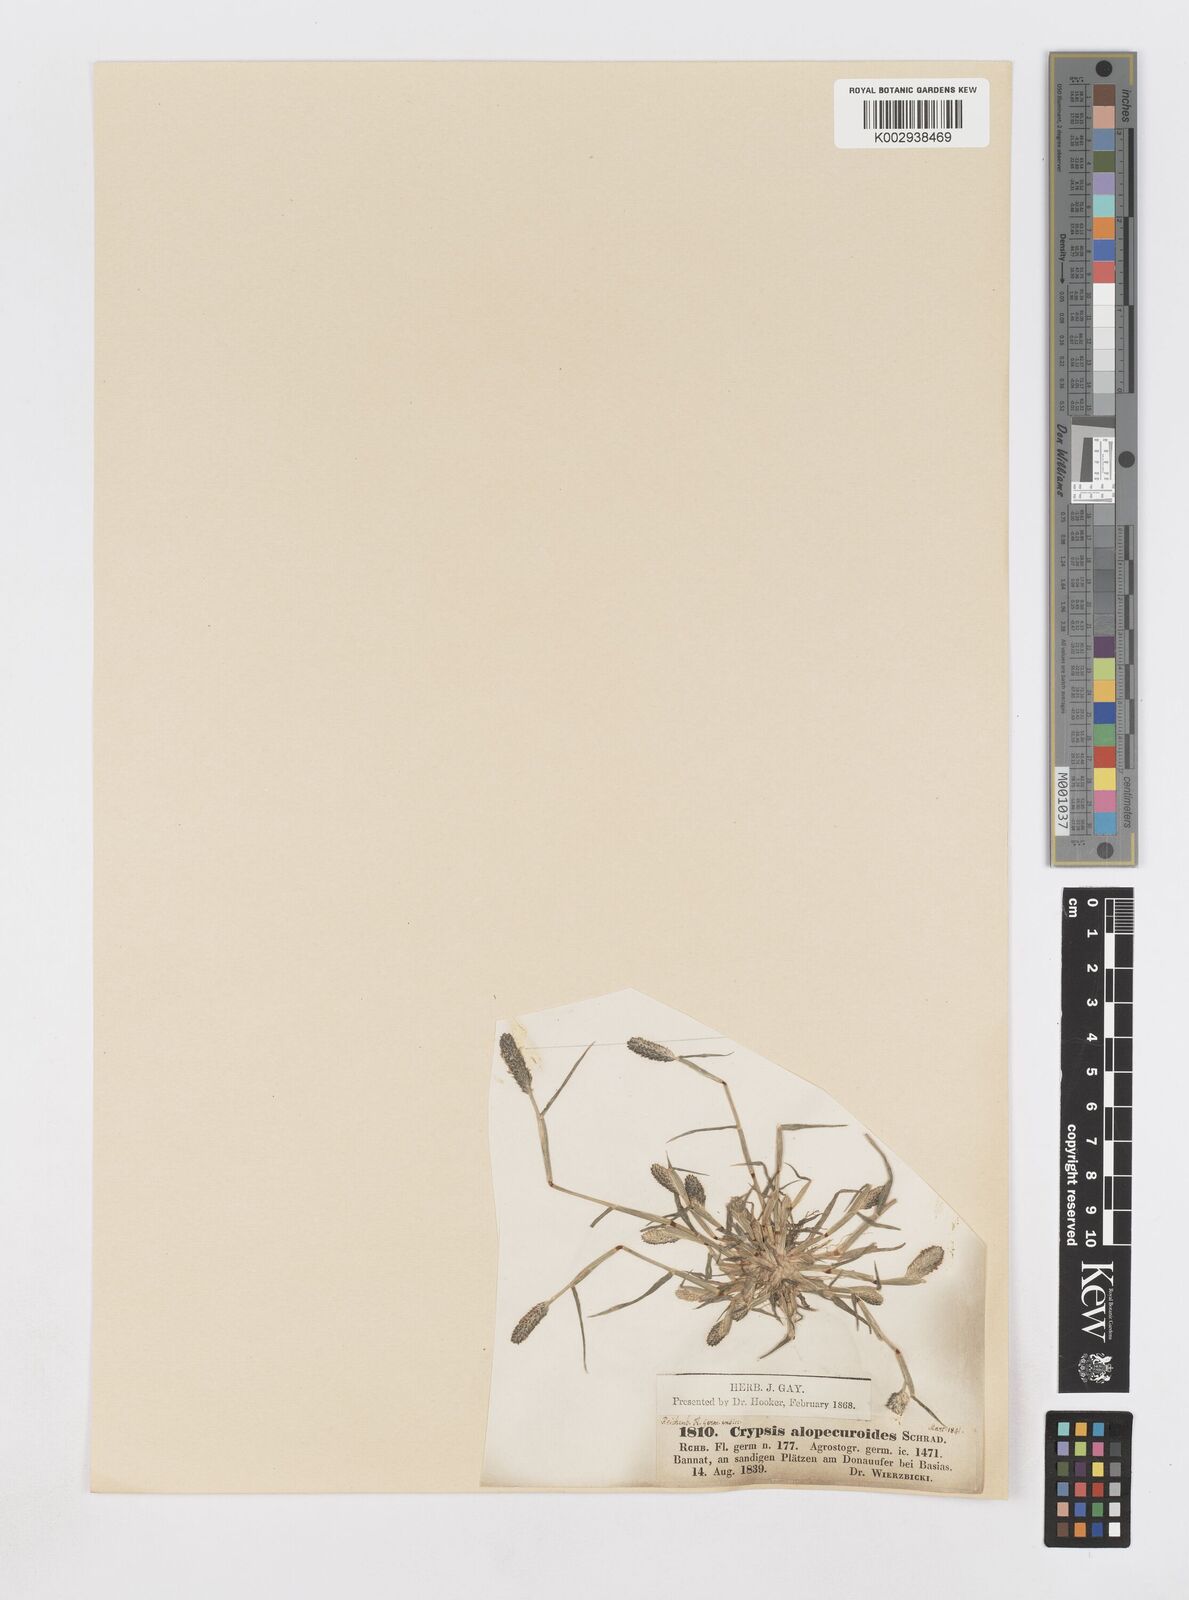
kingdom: Plantae
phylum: Tracheophyta
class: Liliopsida
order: Poales
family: Poaceae
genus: Sporobolus
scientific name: Sporobolus alopecuroides
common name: Foxtail pricklegrass
